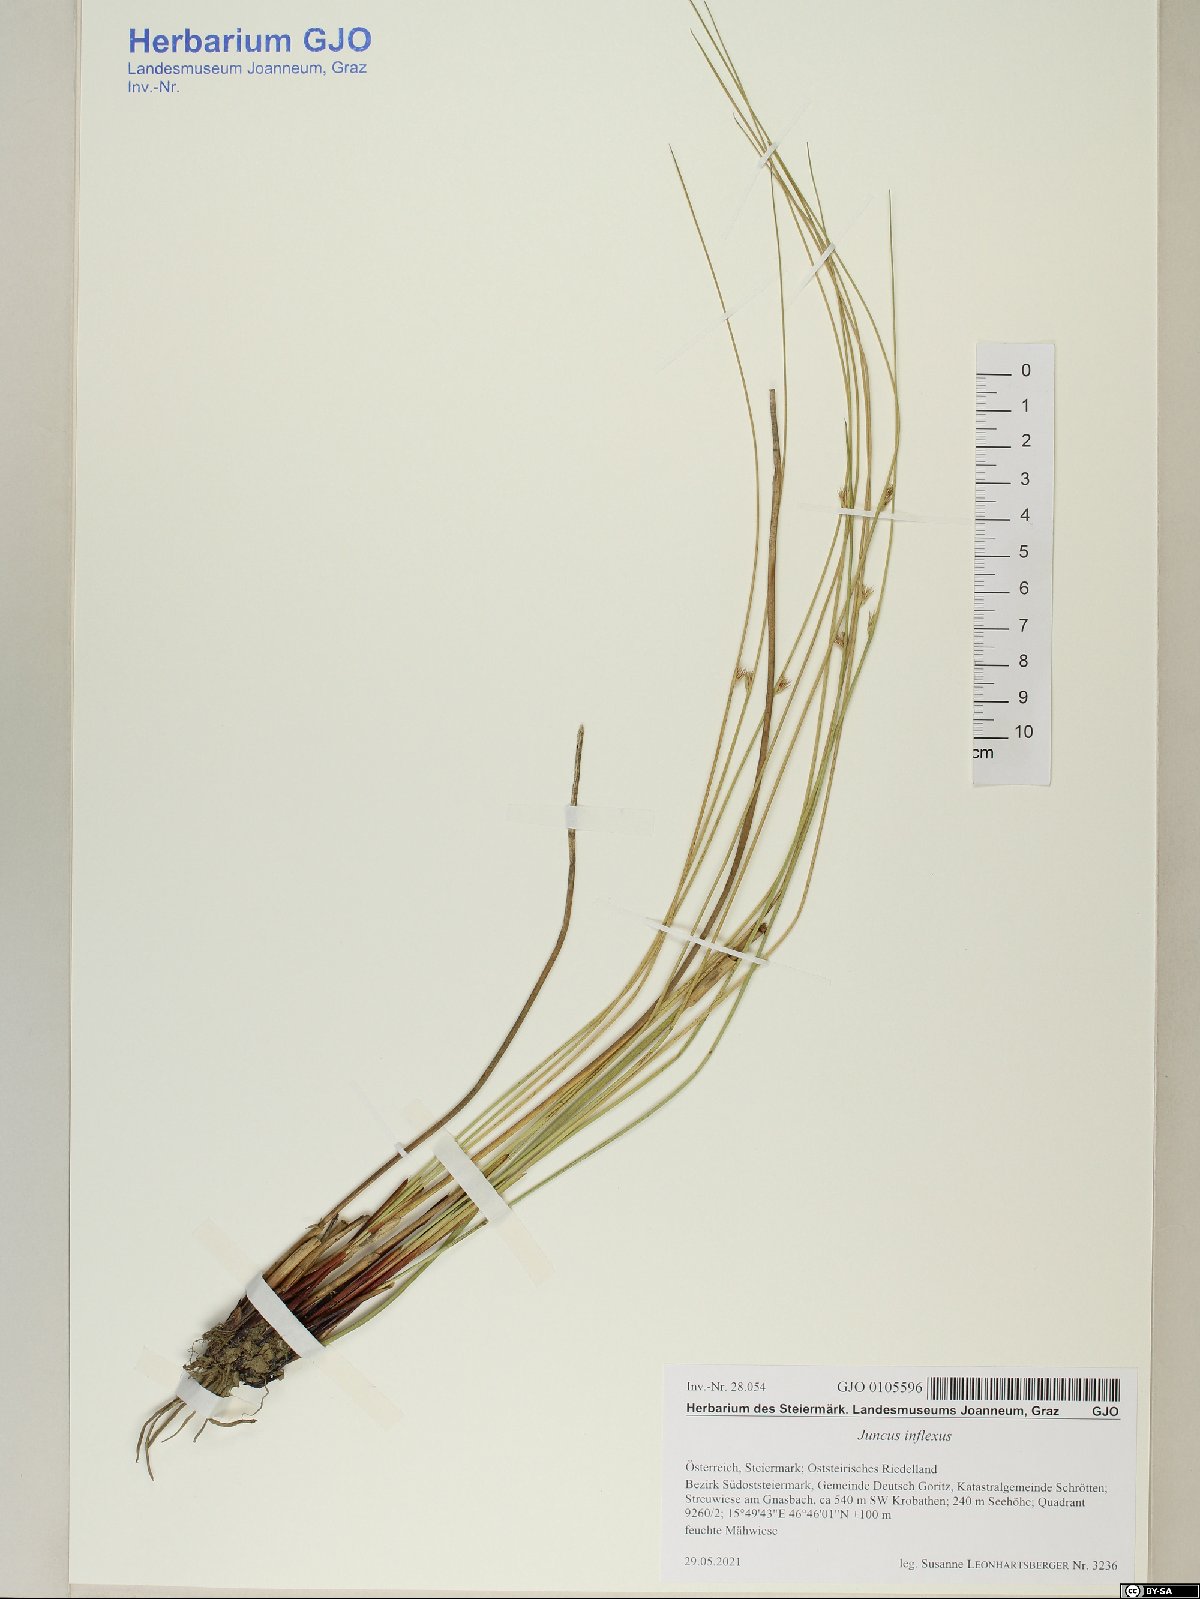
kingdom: Plantae
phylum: Tracheophyta
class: Liliopsida
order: Poales
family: Juncaceae
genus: Juncus
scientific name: Juncus inflexus
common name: Hard rush
